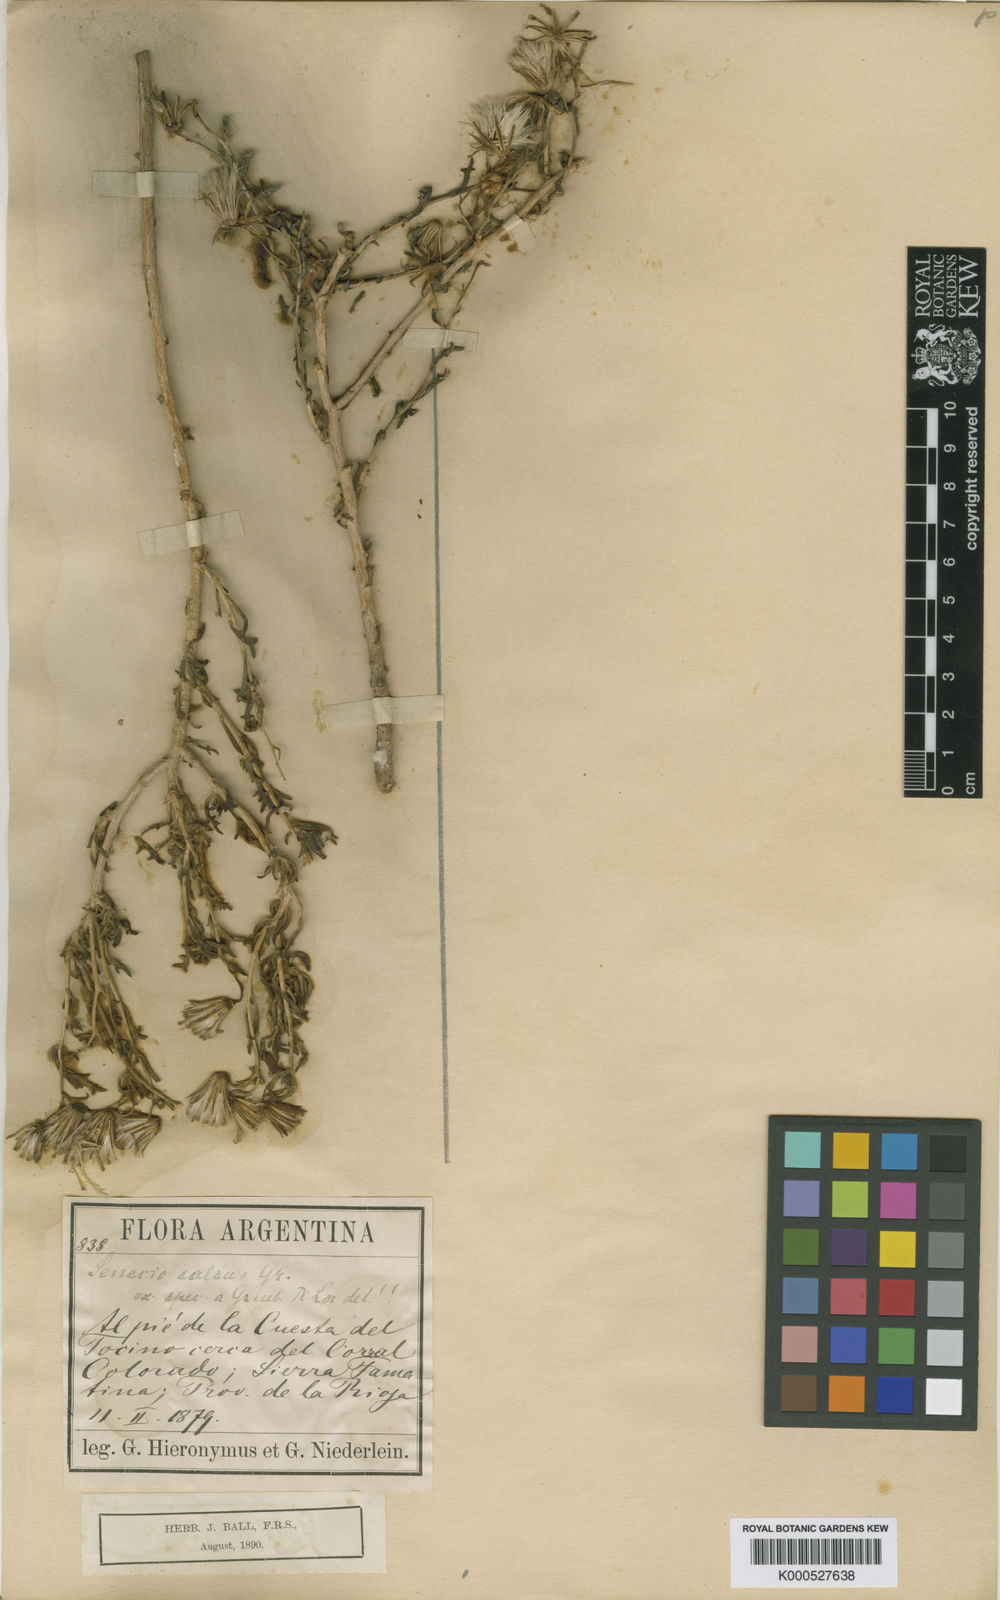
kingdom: Plantae
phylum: Tracheophyta
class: Magnoliopsida
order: Asterales
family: Asteraceae
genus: Senecio
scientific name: Senecio subulatus
